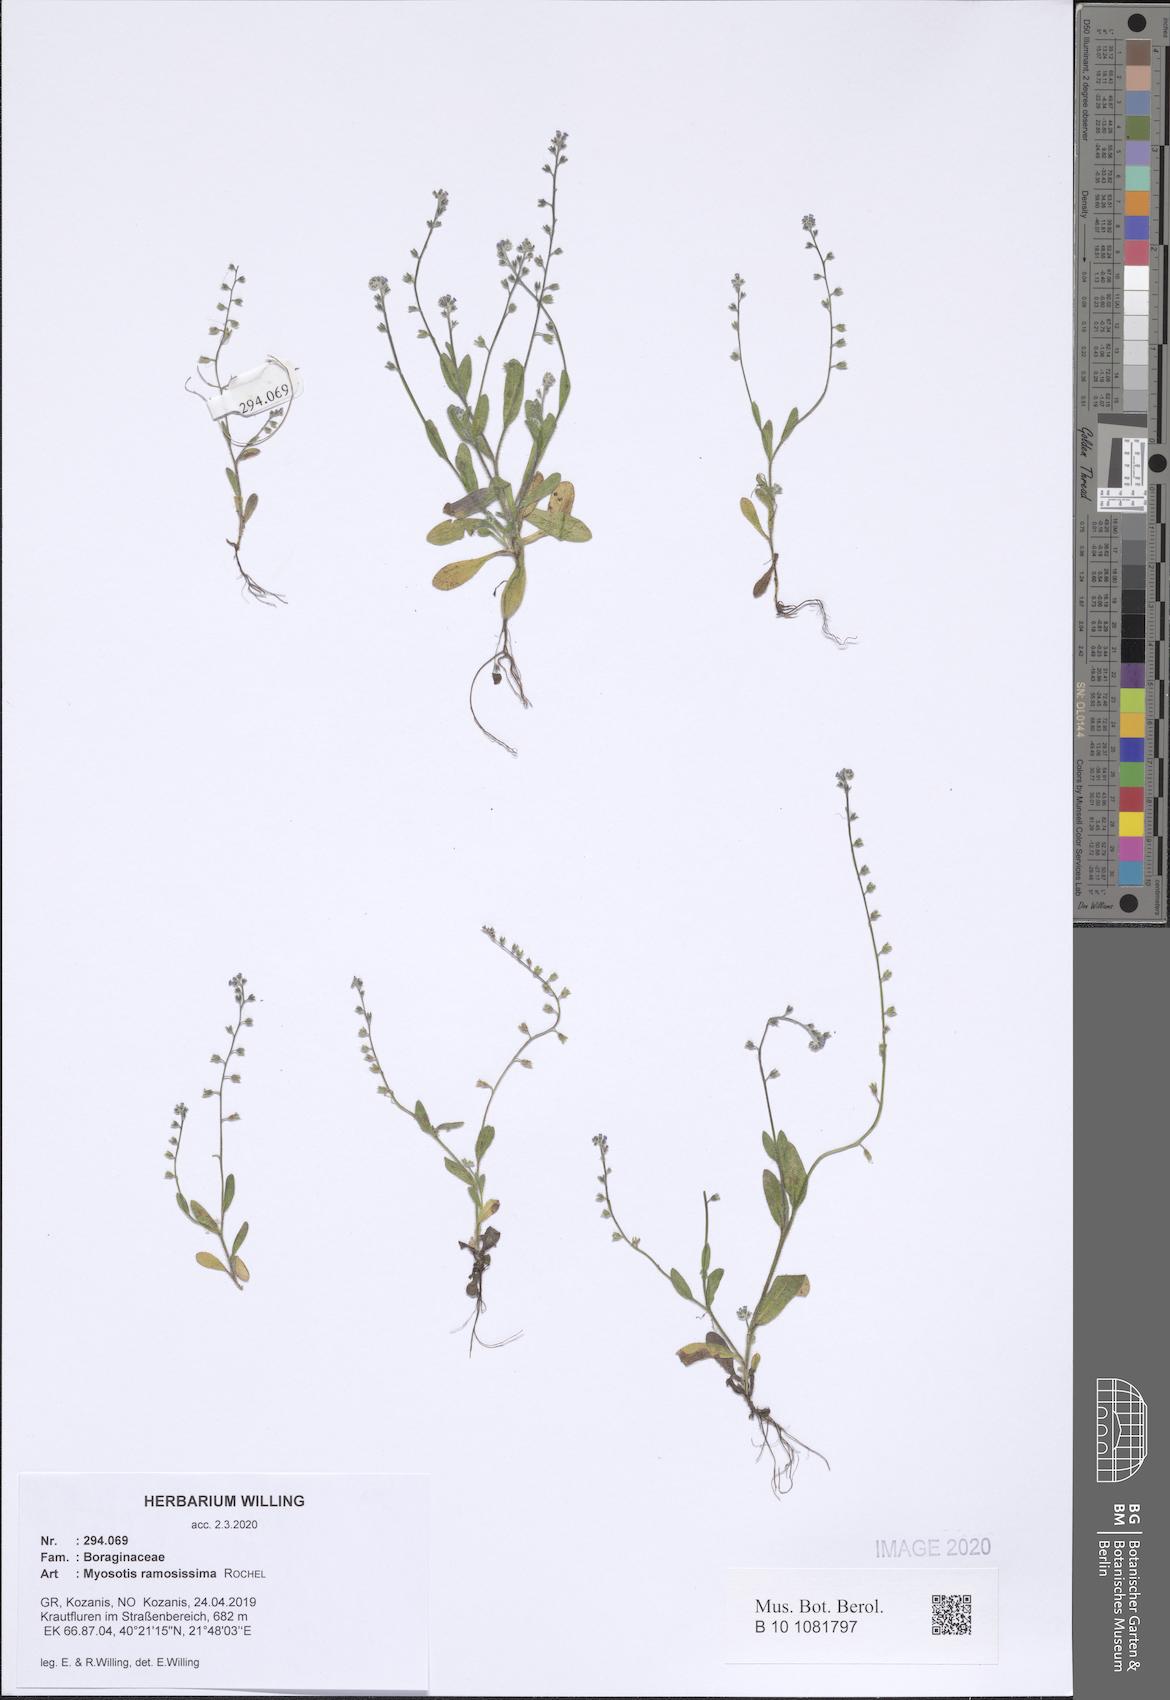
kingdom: Plantae
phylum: Tracheophyta
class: Magnoliopsida
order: Boraginales
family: Boraginaceae
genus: Myosotis
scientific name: Myosotis ramosissima
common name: Early forget-me-not
